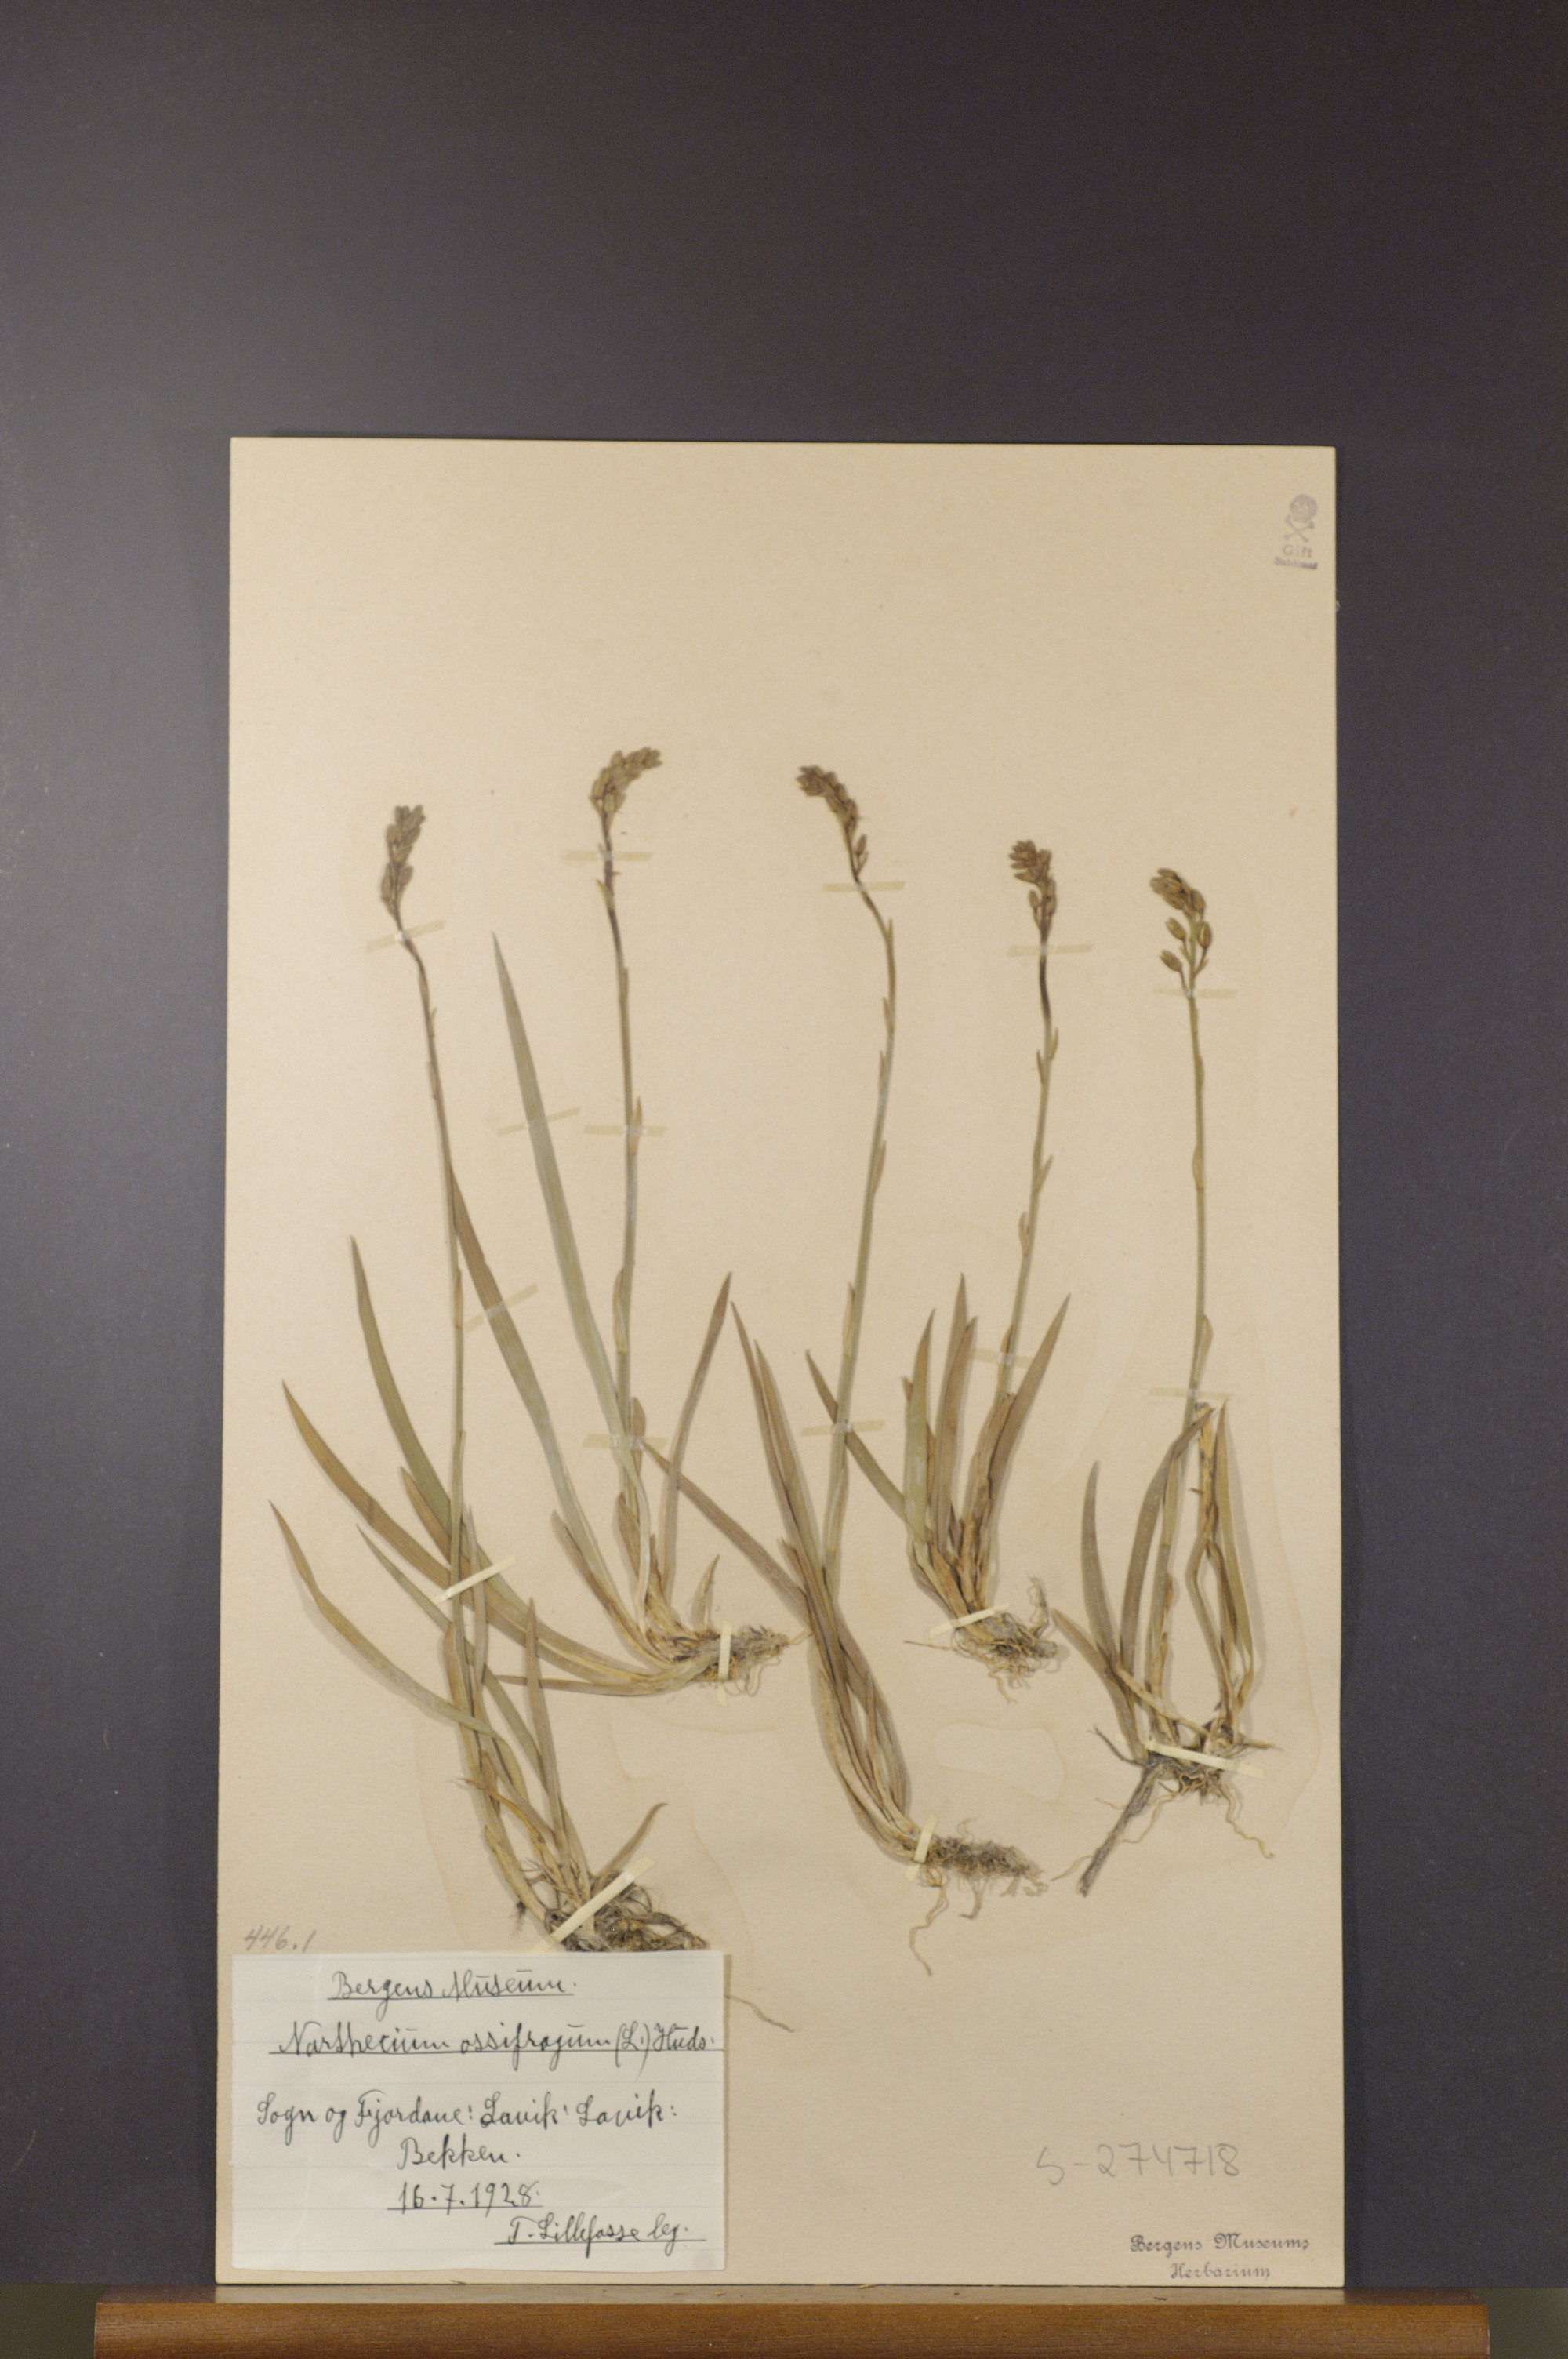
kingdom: Plantae
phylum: Tracheophyta
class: Liliopsida
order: Dioscoreales
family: Nartheciaceae
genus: Narthecium
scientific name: Narthecium ossifragum
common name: Bog asphodel
